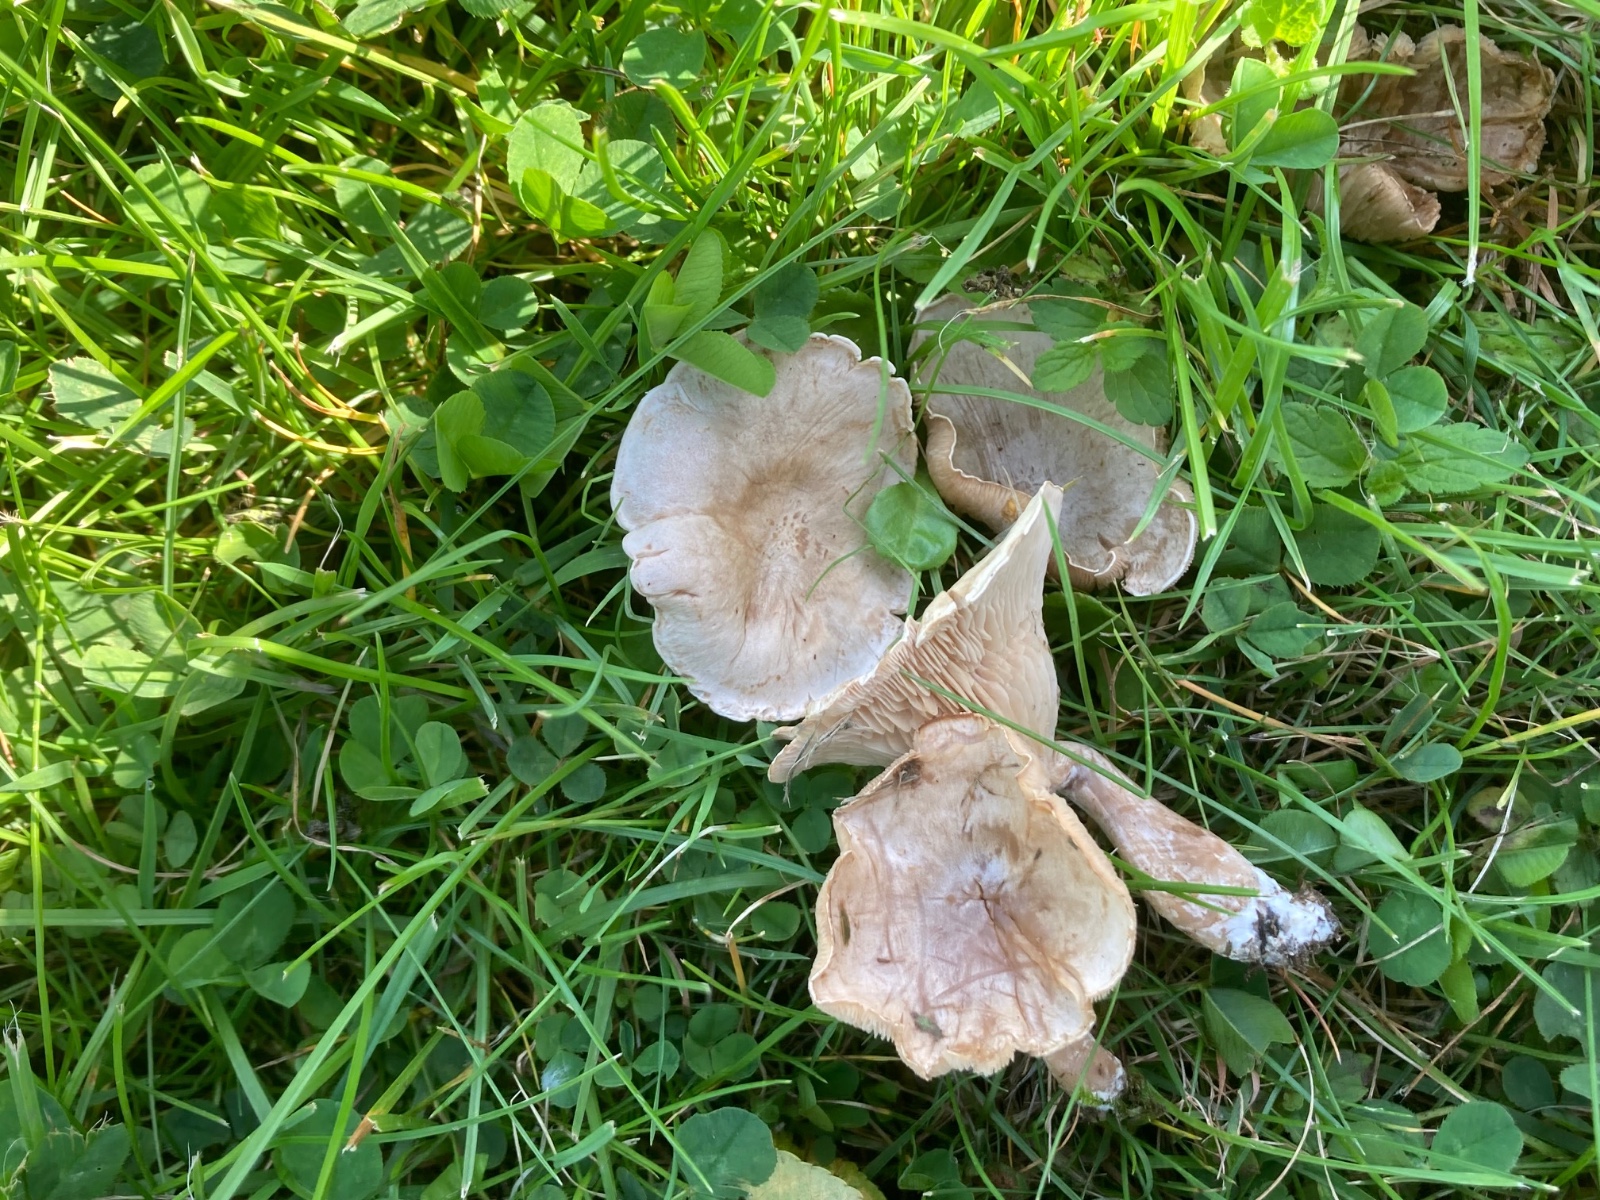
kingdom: Fungi
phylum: Basidiomycota
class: Agaricomycetes
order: Agaricales
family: Tricholomataceae
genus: Clitocybe
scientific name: Clitocybe rivulosa
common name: eng-tragthat
